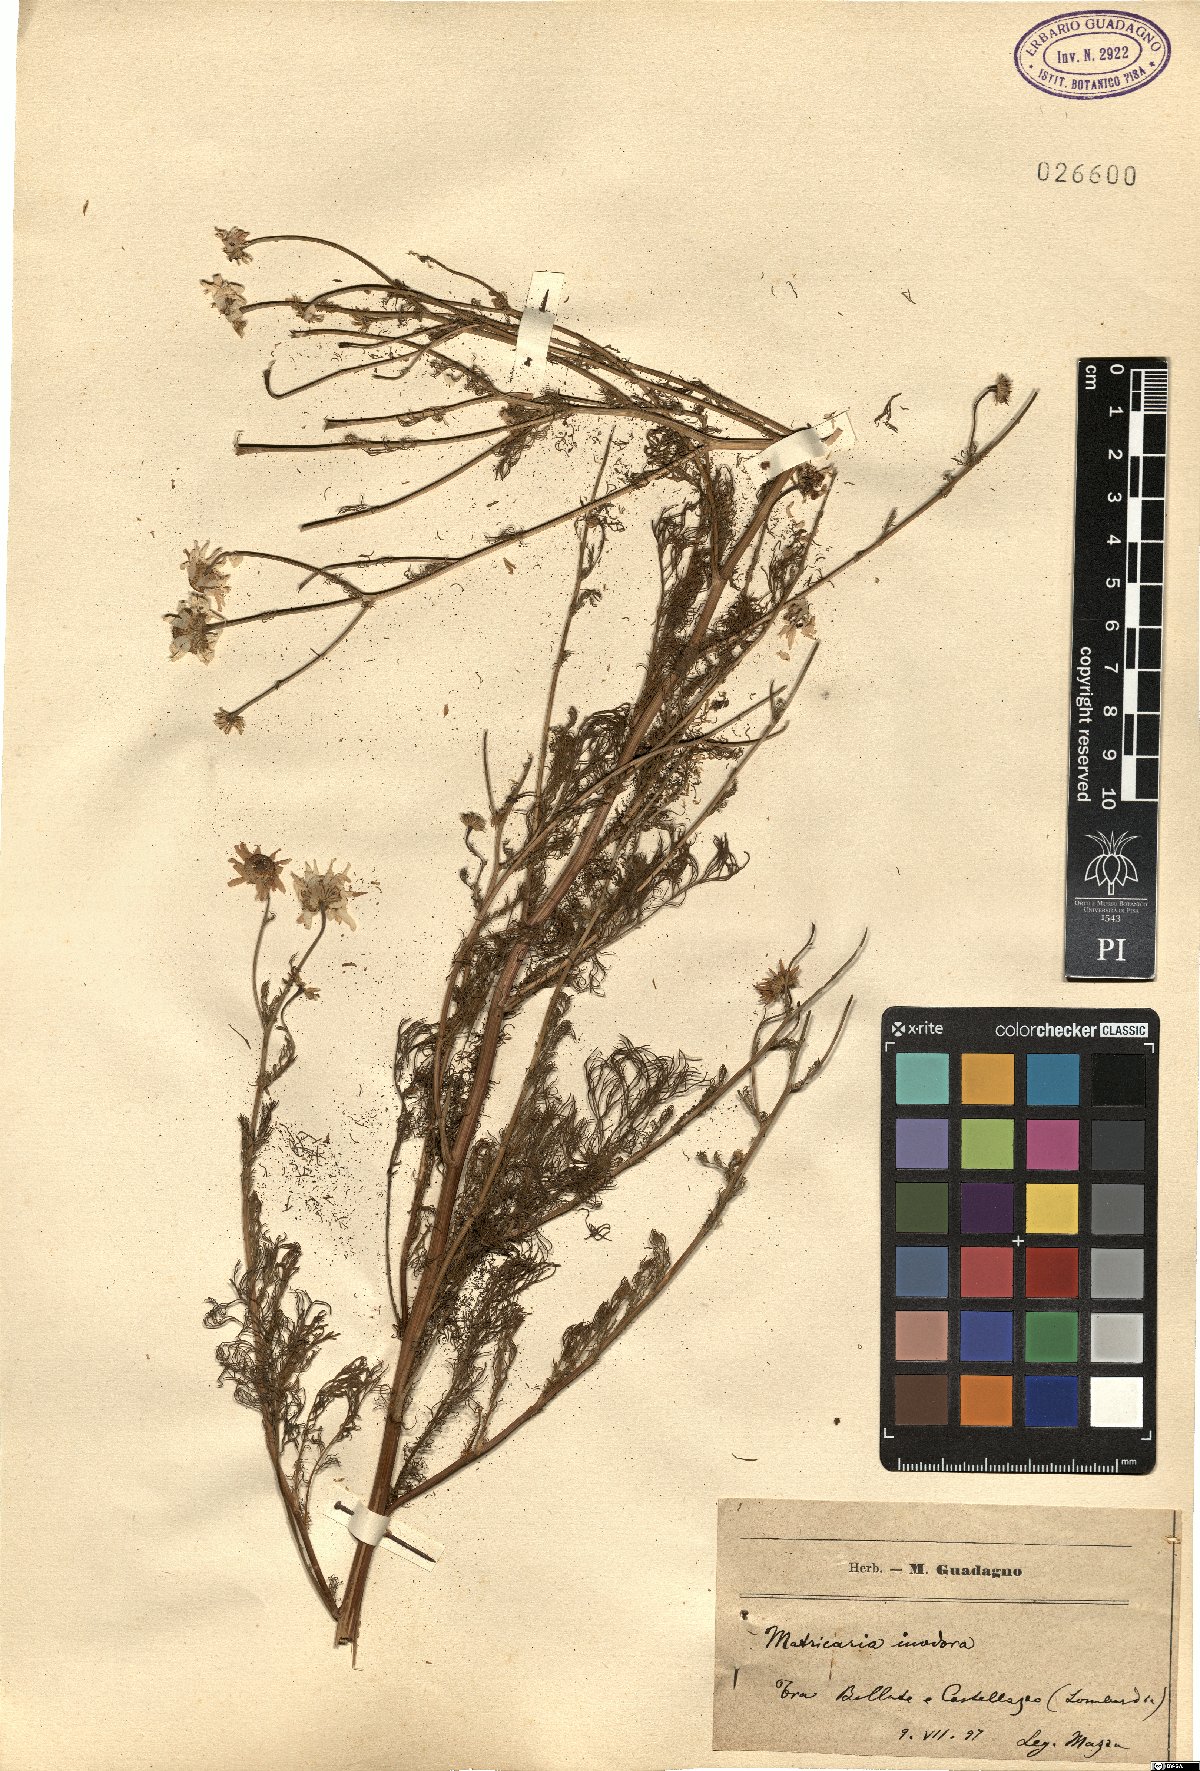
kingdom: Plantae
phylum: Tracheophyta
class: Magnoliopsida
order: Asterales
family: Asteraceae
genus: Tripleurospermum
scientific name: Tripleurospermum inodorum
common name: Scentless mayweed
